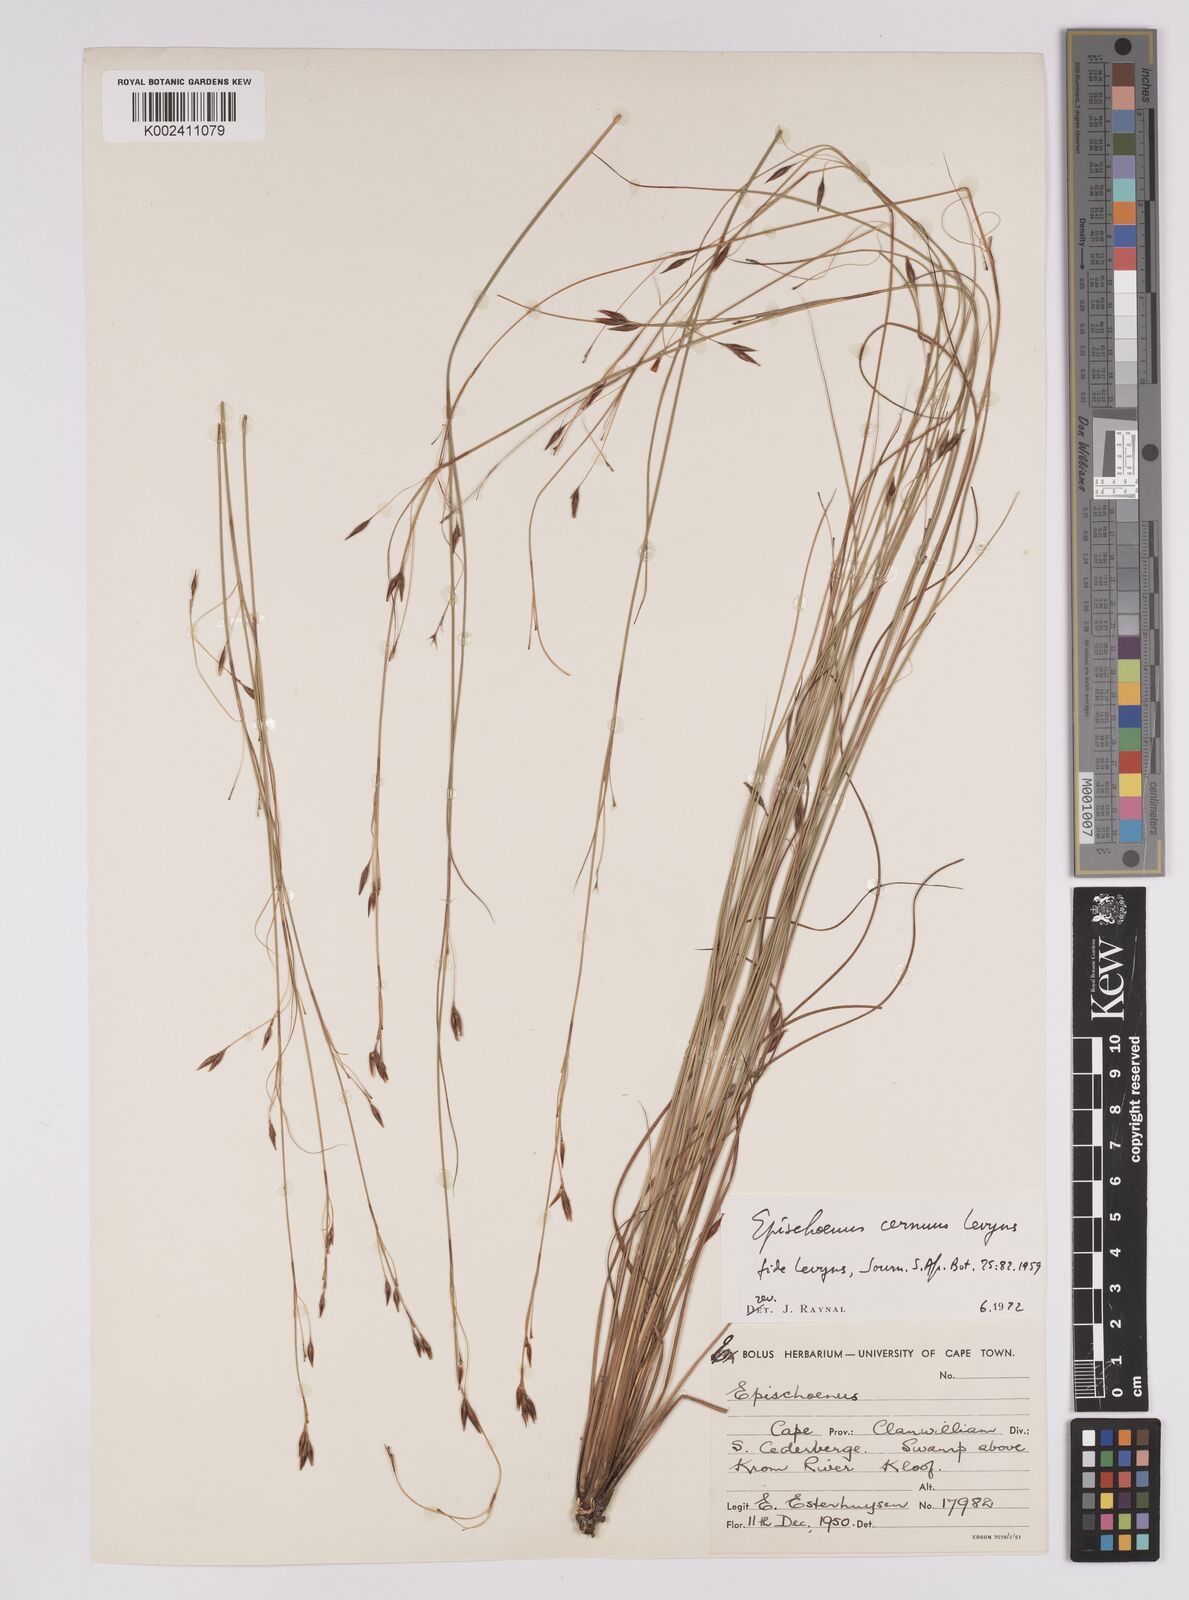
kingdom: Plantae
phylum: Tracheophyta
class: Liliopsida
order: Poales
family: Cyperaceae
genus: Tetraria
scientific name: Tetraria cernua
